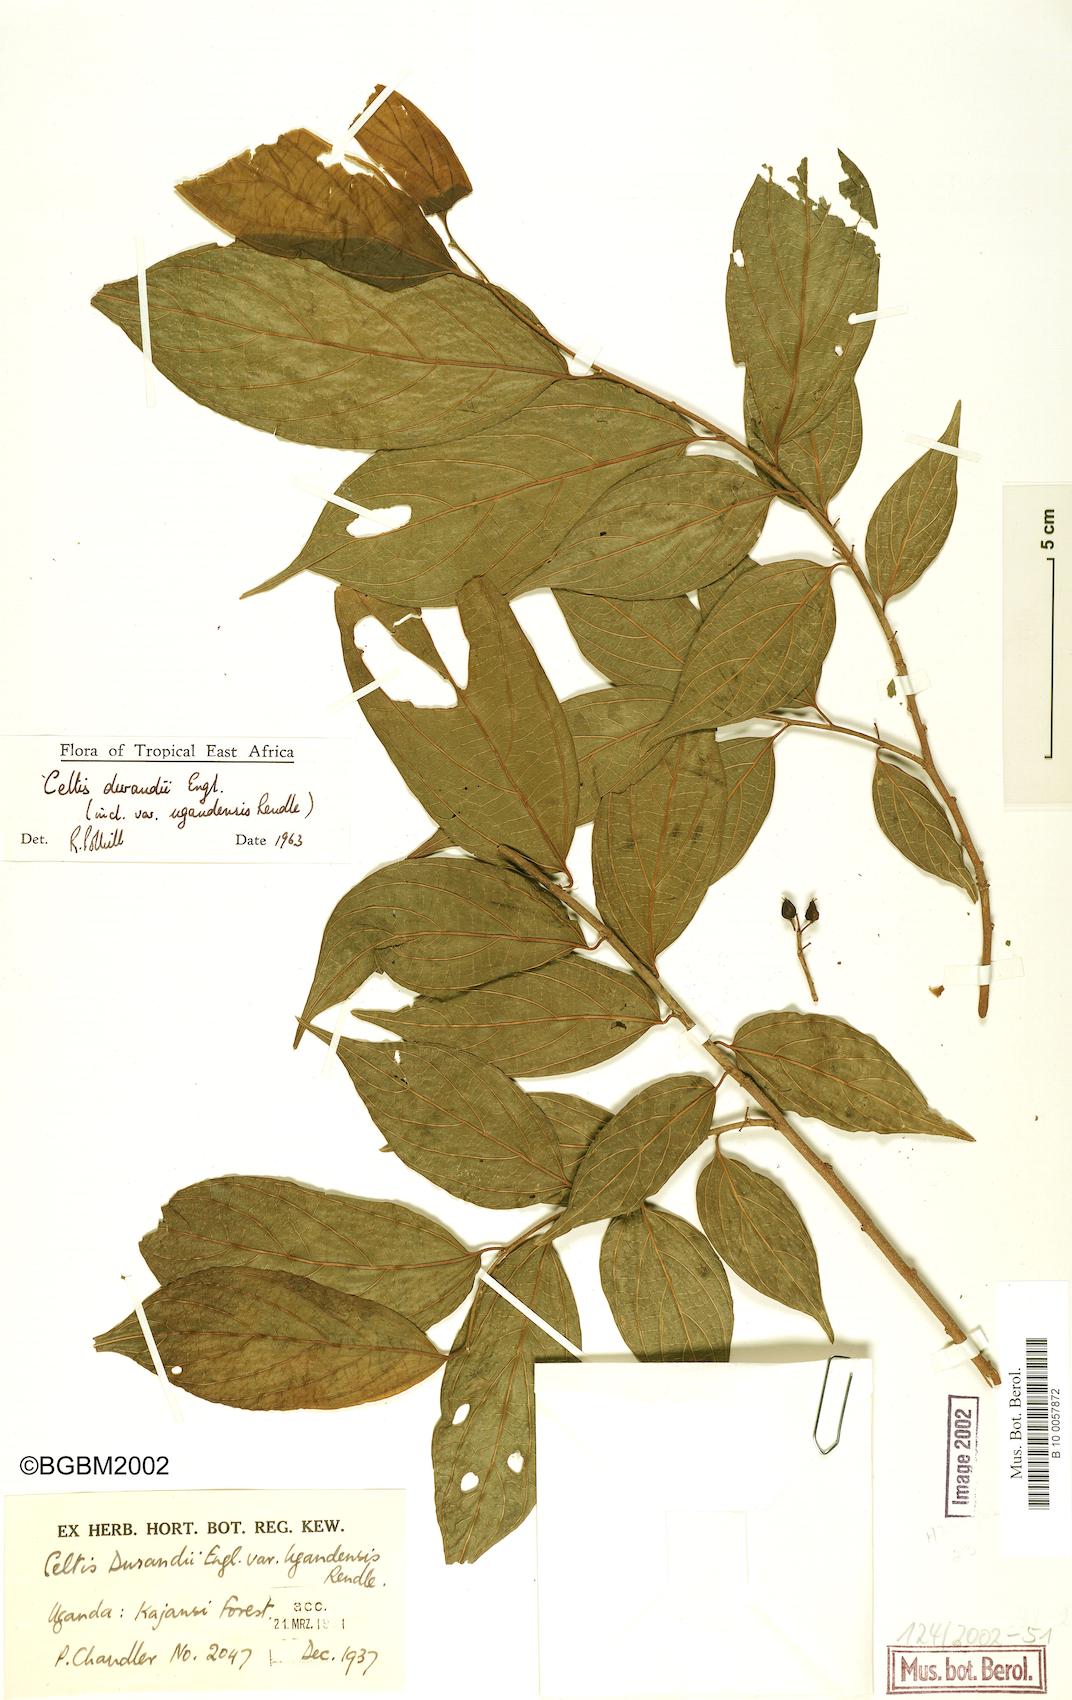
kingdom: Plantae
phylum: Tracheophyta
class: Magnoliopsida
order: Rosales
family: Cannabaceae
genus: Celtis
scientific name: Celtis gomphophylla
